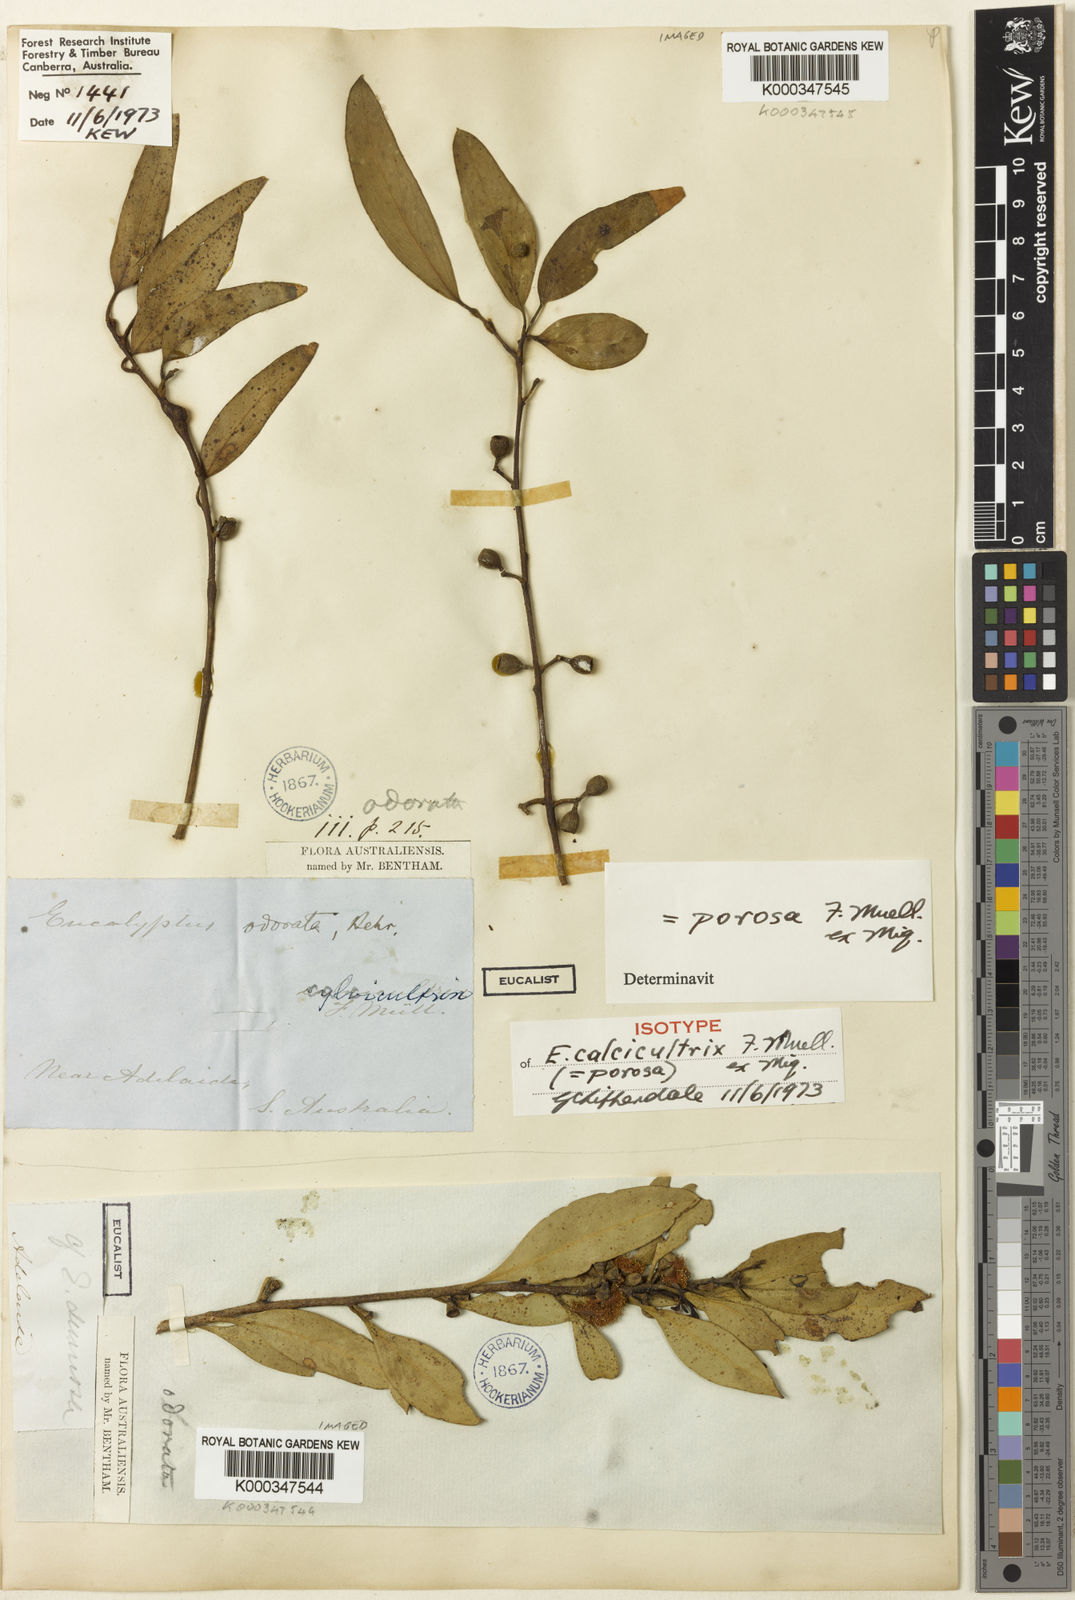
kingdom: Plantae
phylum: Tracheophyta
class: Magnoliopsida
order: Myrtales
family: Myrtaceae
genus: Eucalyptus
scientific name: Eucalyptus porosa
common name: Quorn mallee
